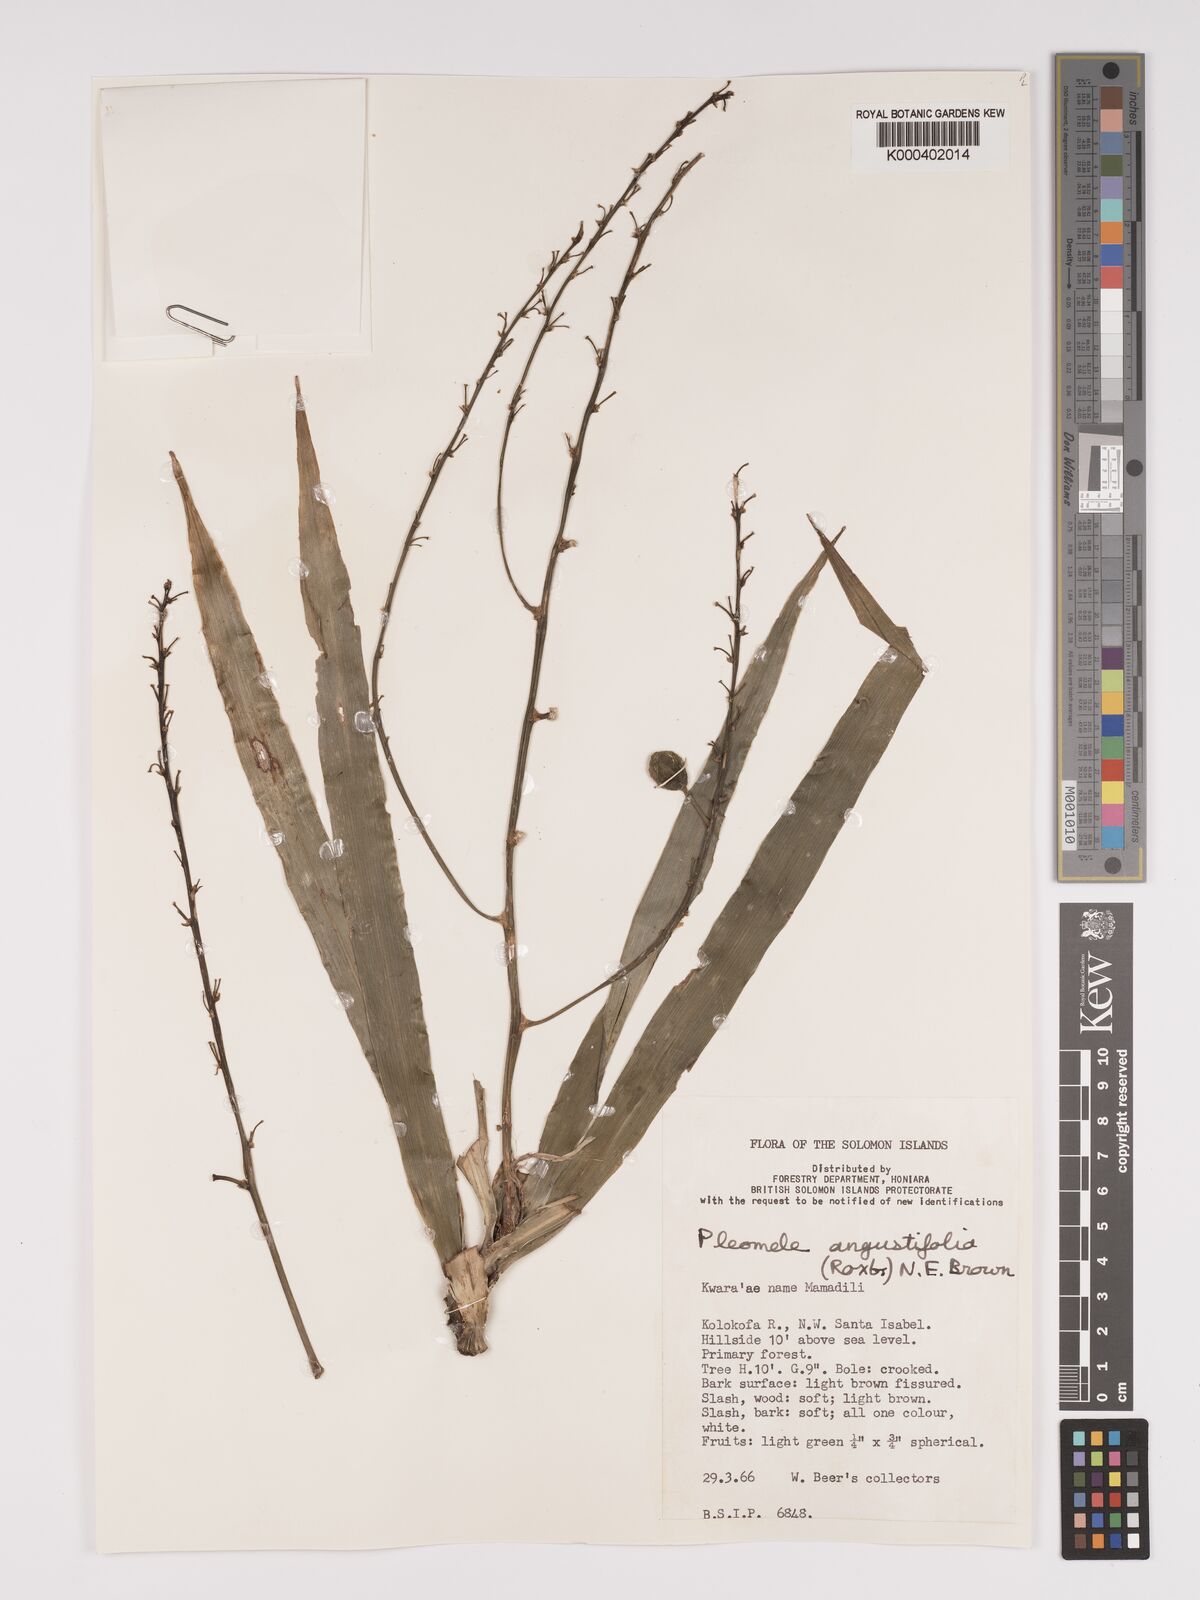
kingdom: Plantae
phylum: Tracheophyta
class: Liliopsida
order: Asparagales
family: Asparagaceae
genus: Dracaena
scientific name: Dracaena angustifolia
